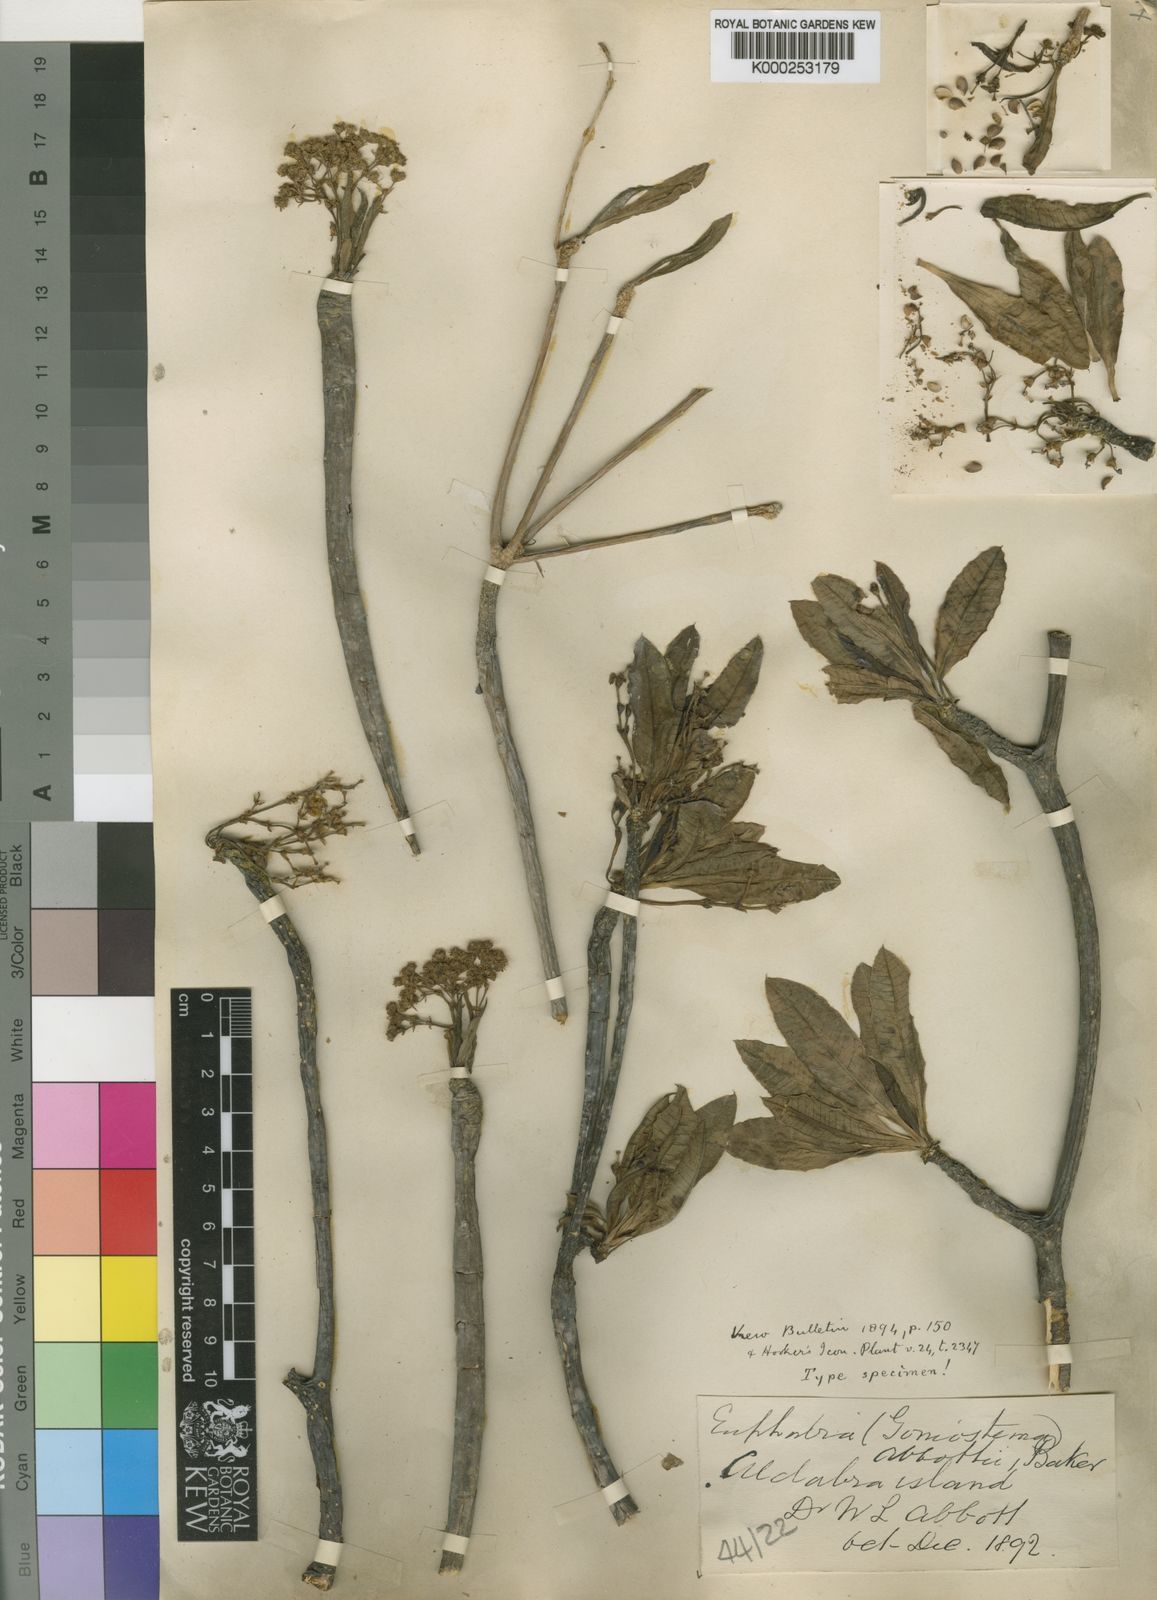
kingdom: Plantae
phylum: Tracheophyta
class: Magnoliopsida
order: Malpighiales
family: Euphorbiaceae
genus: Euphorbia
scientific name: Euphorbia pyrifolia
